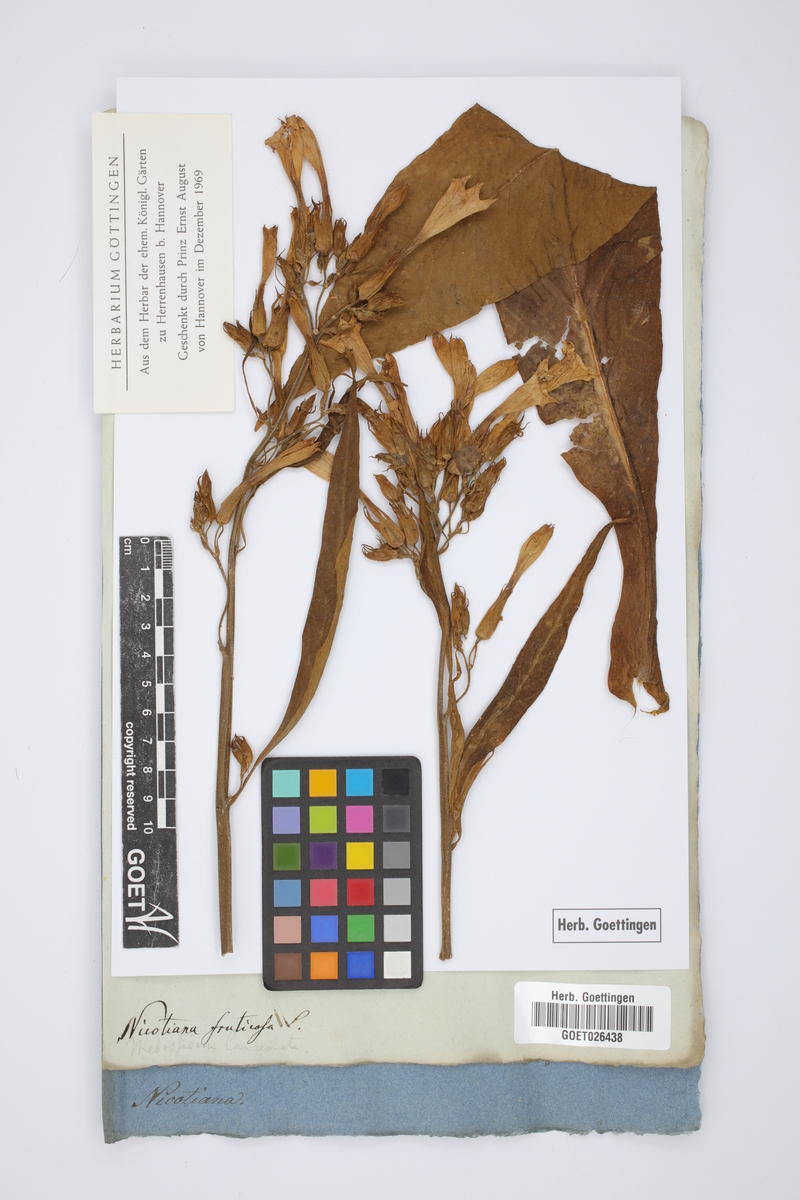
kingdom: Plantae
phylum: Tracheophyta
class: Magnoliopsida
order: Solanales
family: Solanaceae
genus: Nicotiana
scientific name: Nicotiana tabacum
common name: Tobacco
